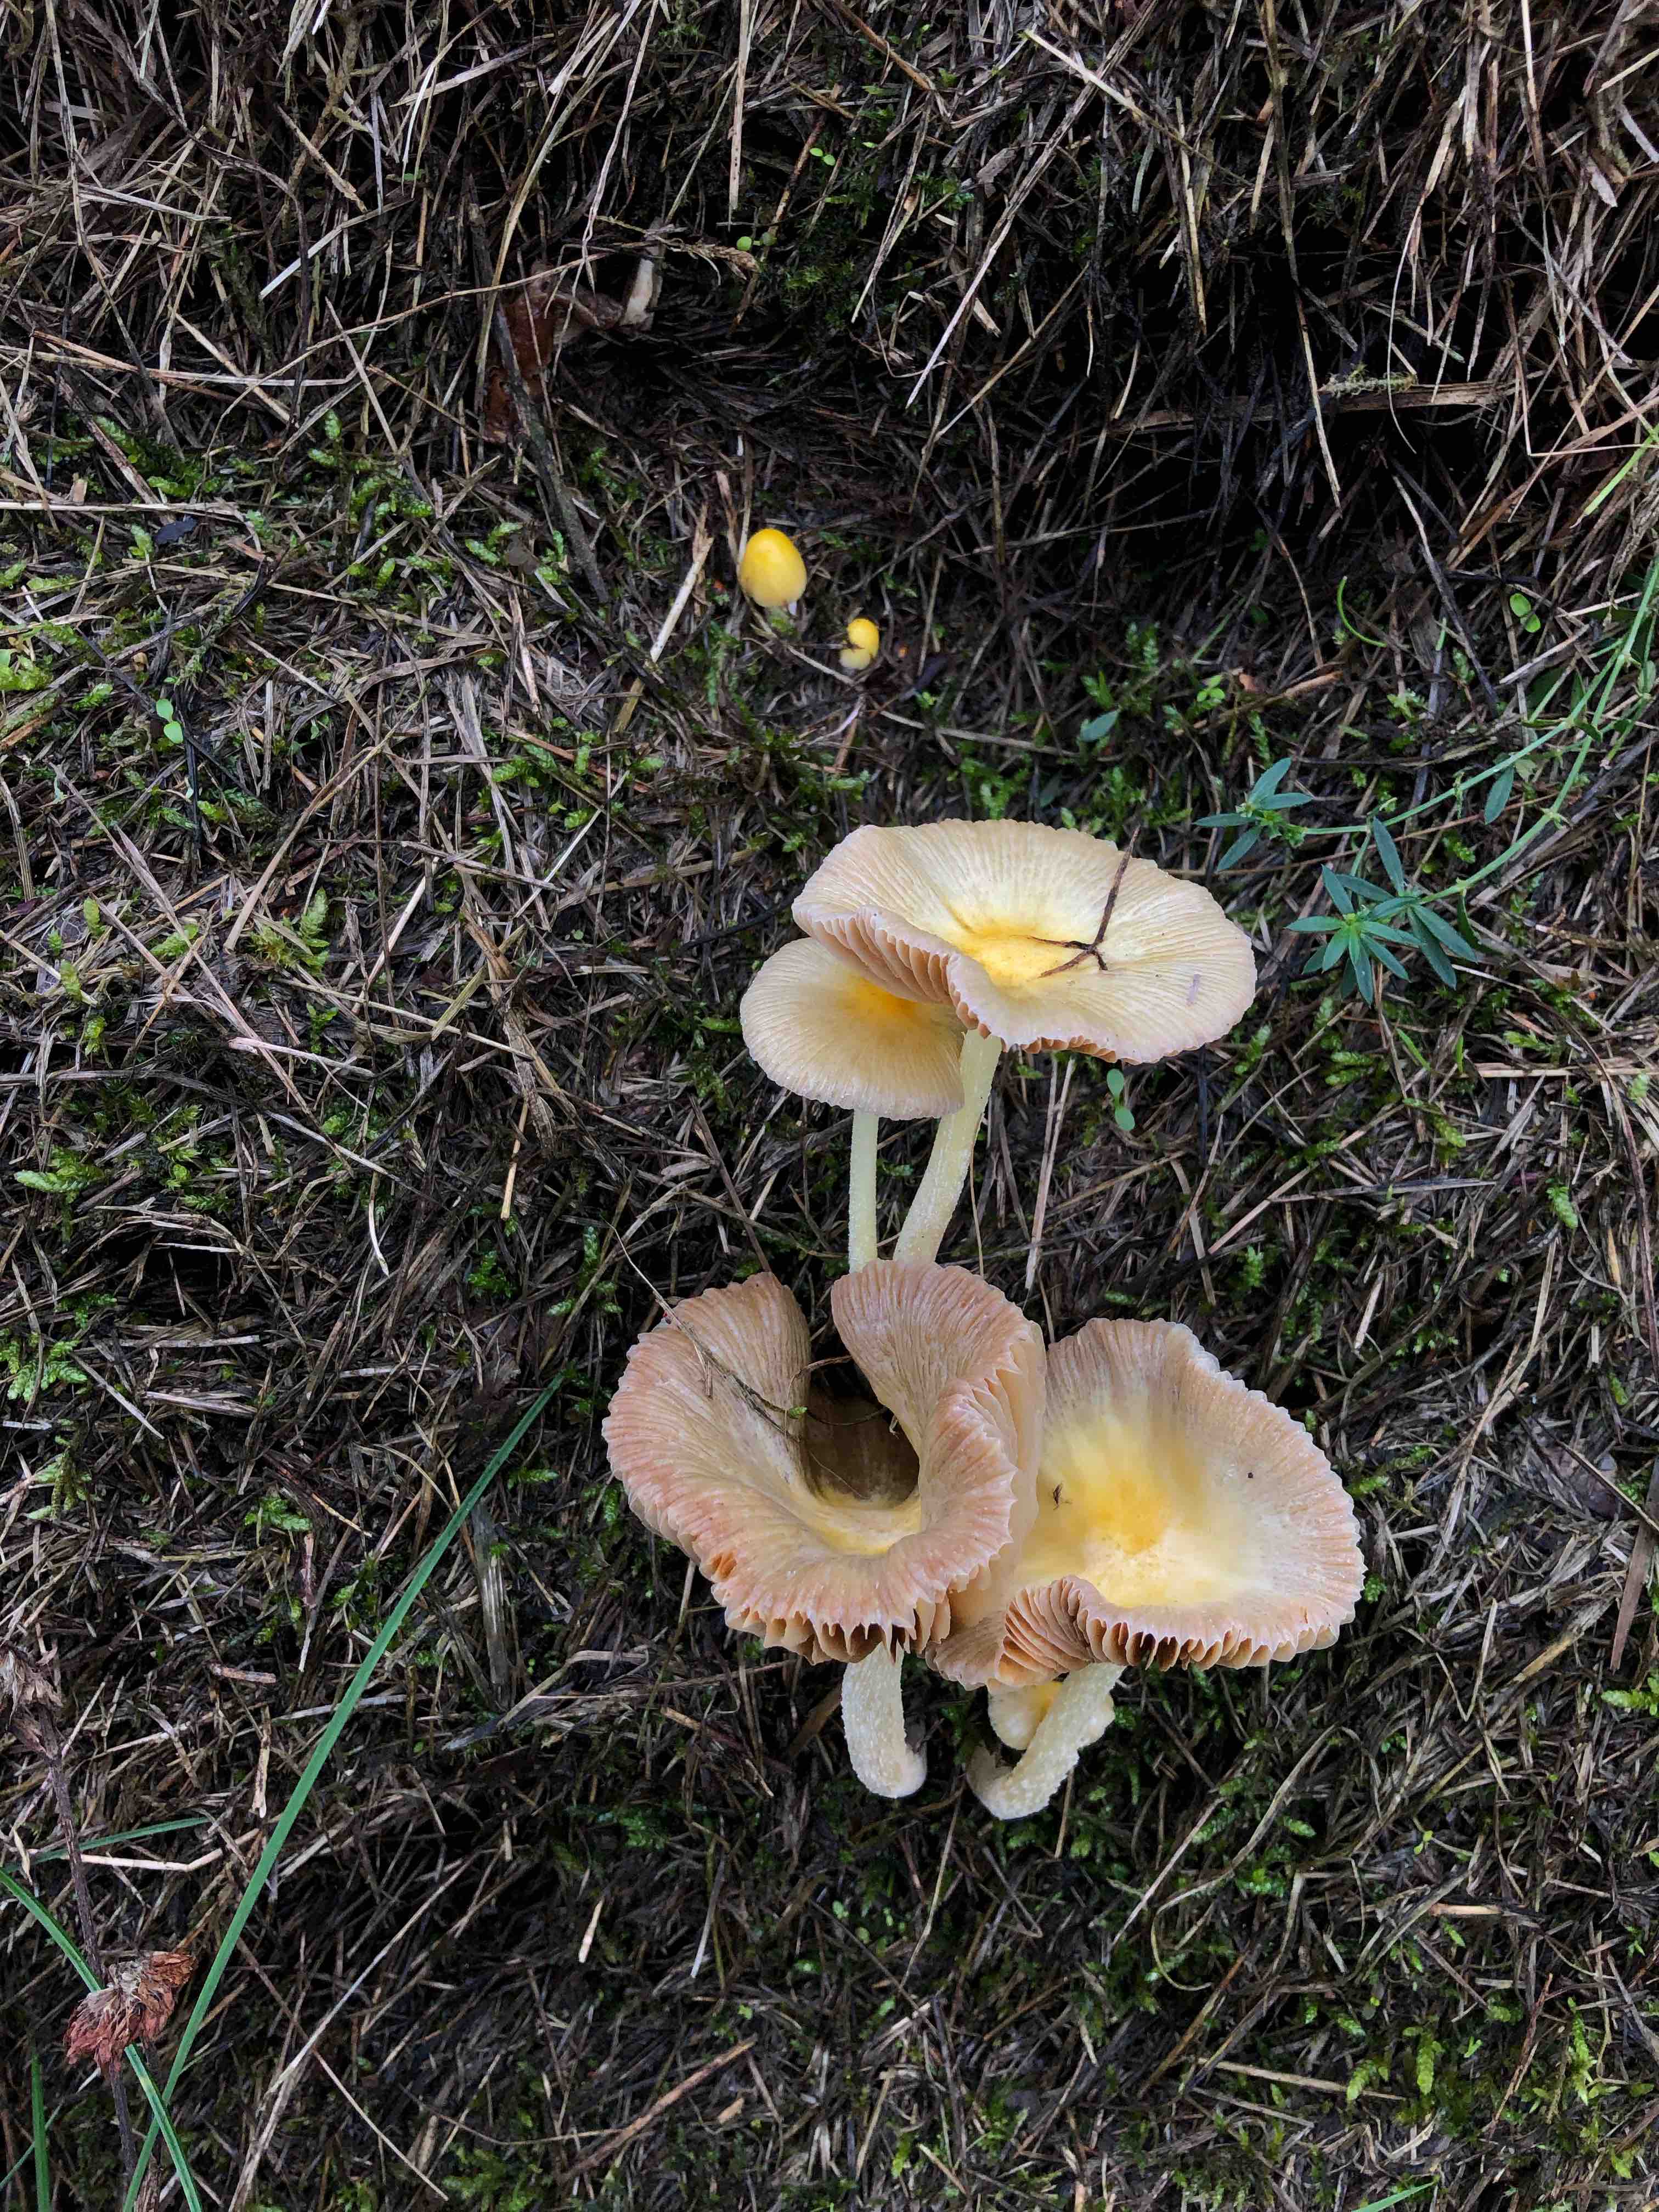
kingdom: Fungi
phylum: Basidiomycota
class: Agaricomycetes
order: Agaricales
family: Bolbitiaceae
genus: Bolbitius
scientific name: Bolbitius titubans
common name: almindelig gulhat
